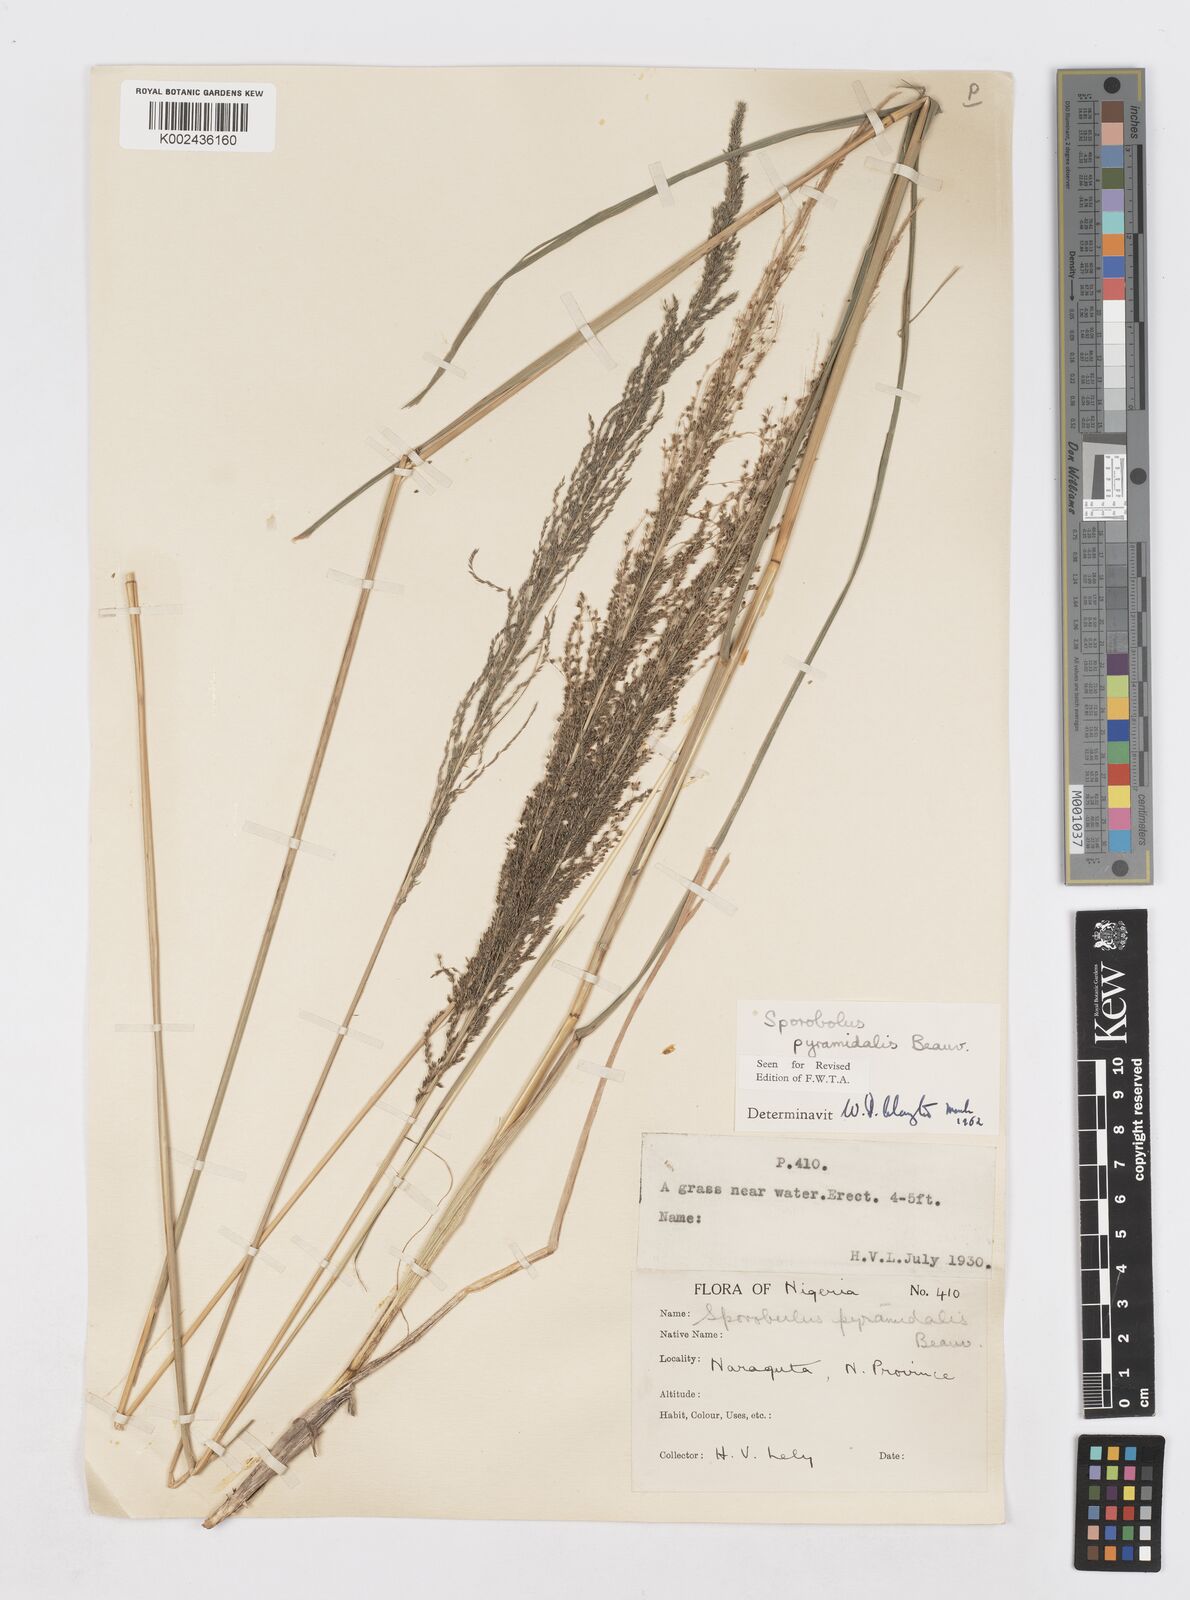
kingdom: Plantae
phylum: Tracheophyta
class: Liliopsida
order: Poales
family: Poaceae
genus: Sporobolus
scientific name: Sporobolus pyramidalis
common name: West indian dropseed
